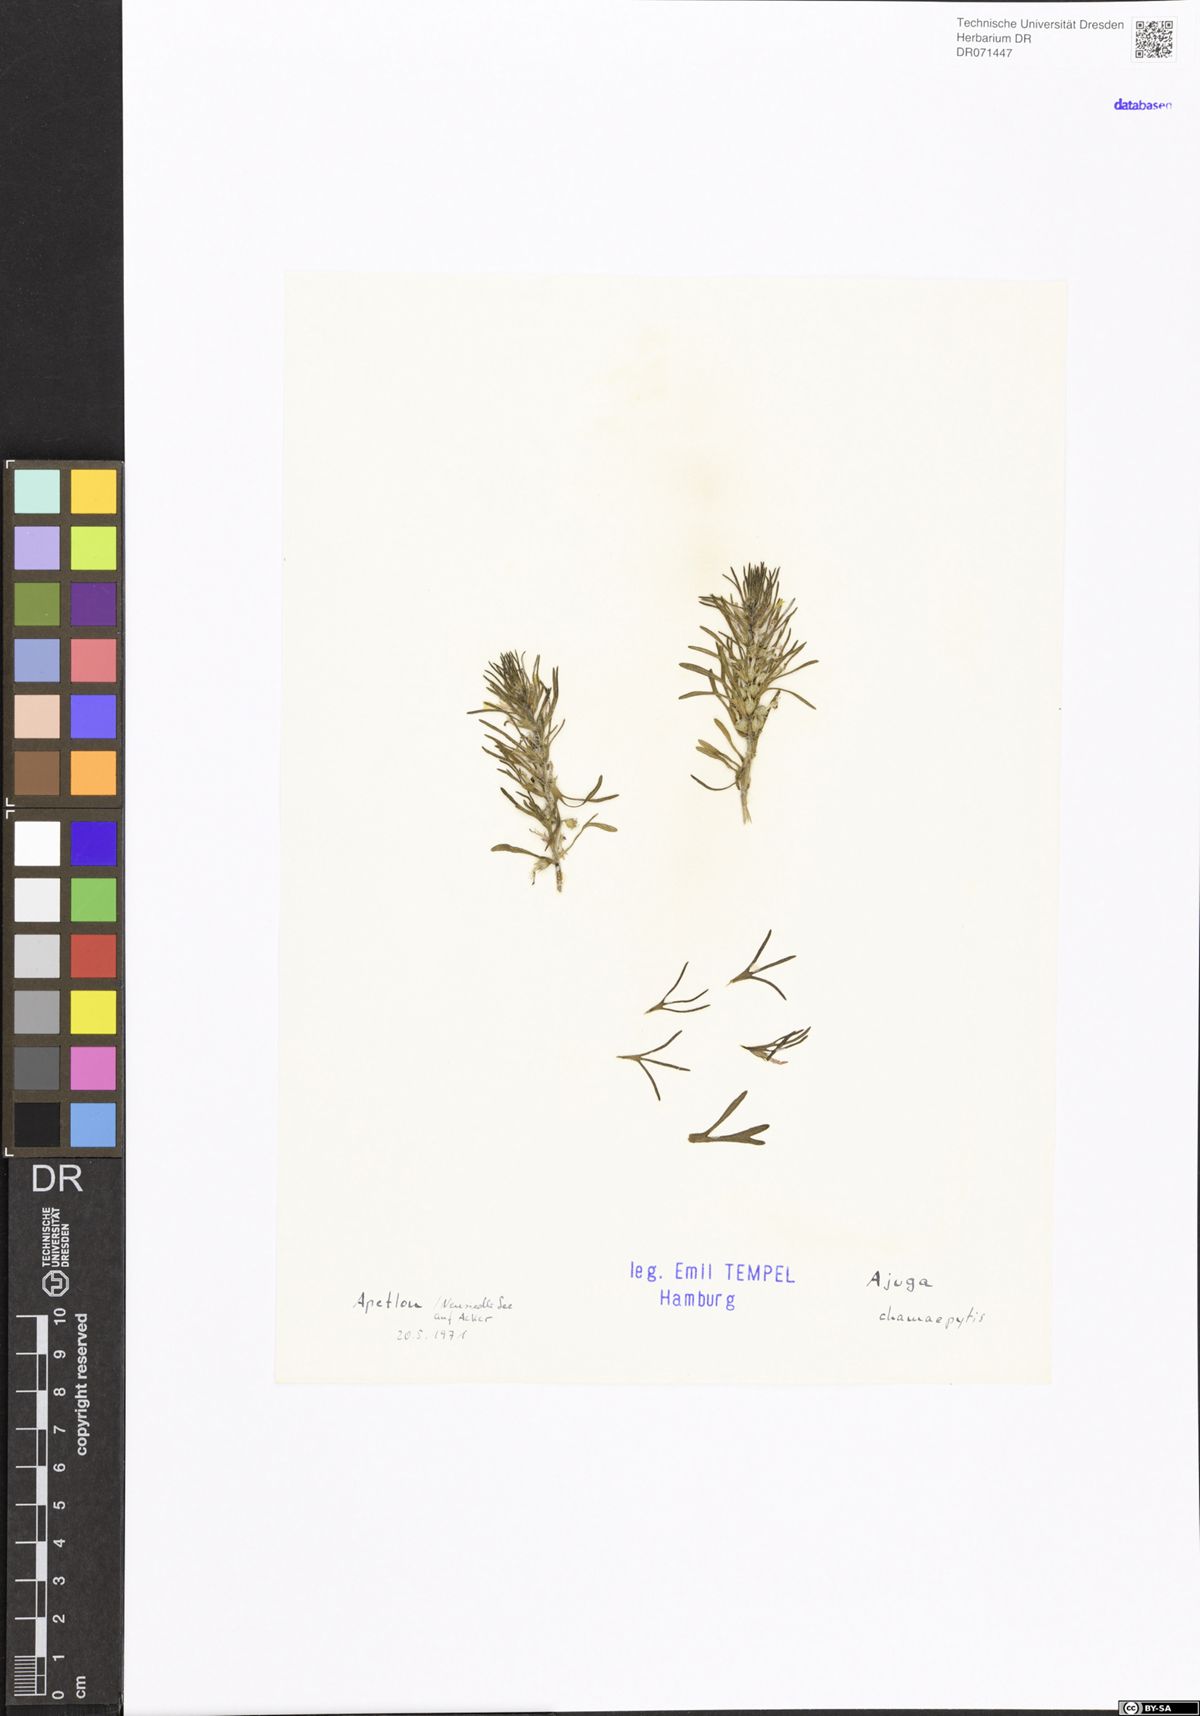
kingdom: Plantae
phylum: Tracheophyta
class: Magnoliopsida
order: Lamiales
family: Lamiaceae
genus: Ajuga
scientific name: Ajuga chamaepitys
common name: Ground-pine
